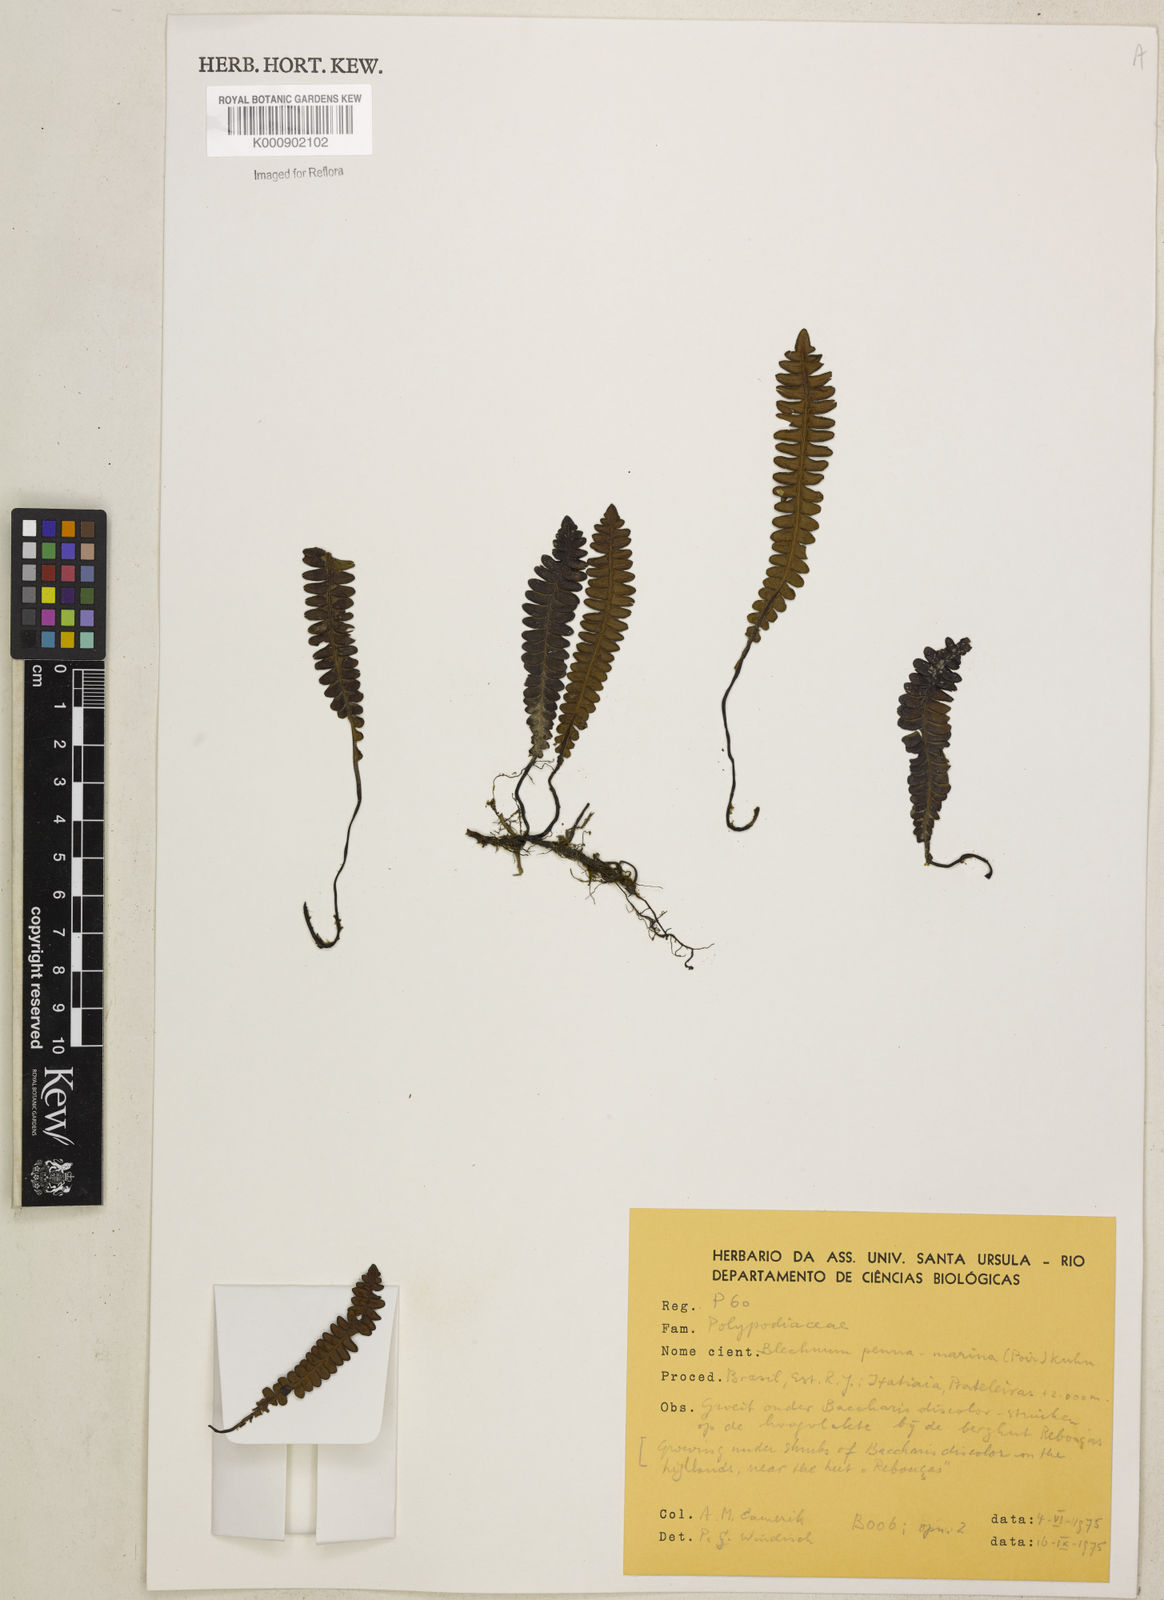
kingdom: Plantae
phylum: Tracheophyta
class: Polypodiopsida
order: Polypodiales
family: Blechnaceae
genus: Austroblechnum
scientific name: Austroblechnum penna-marina
